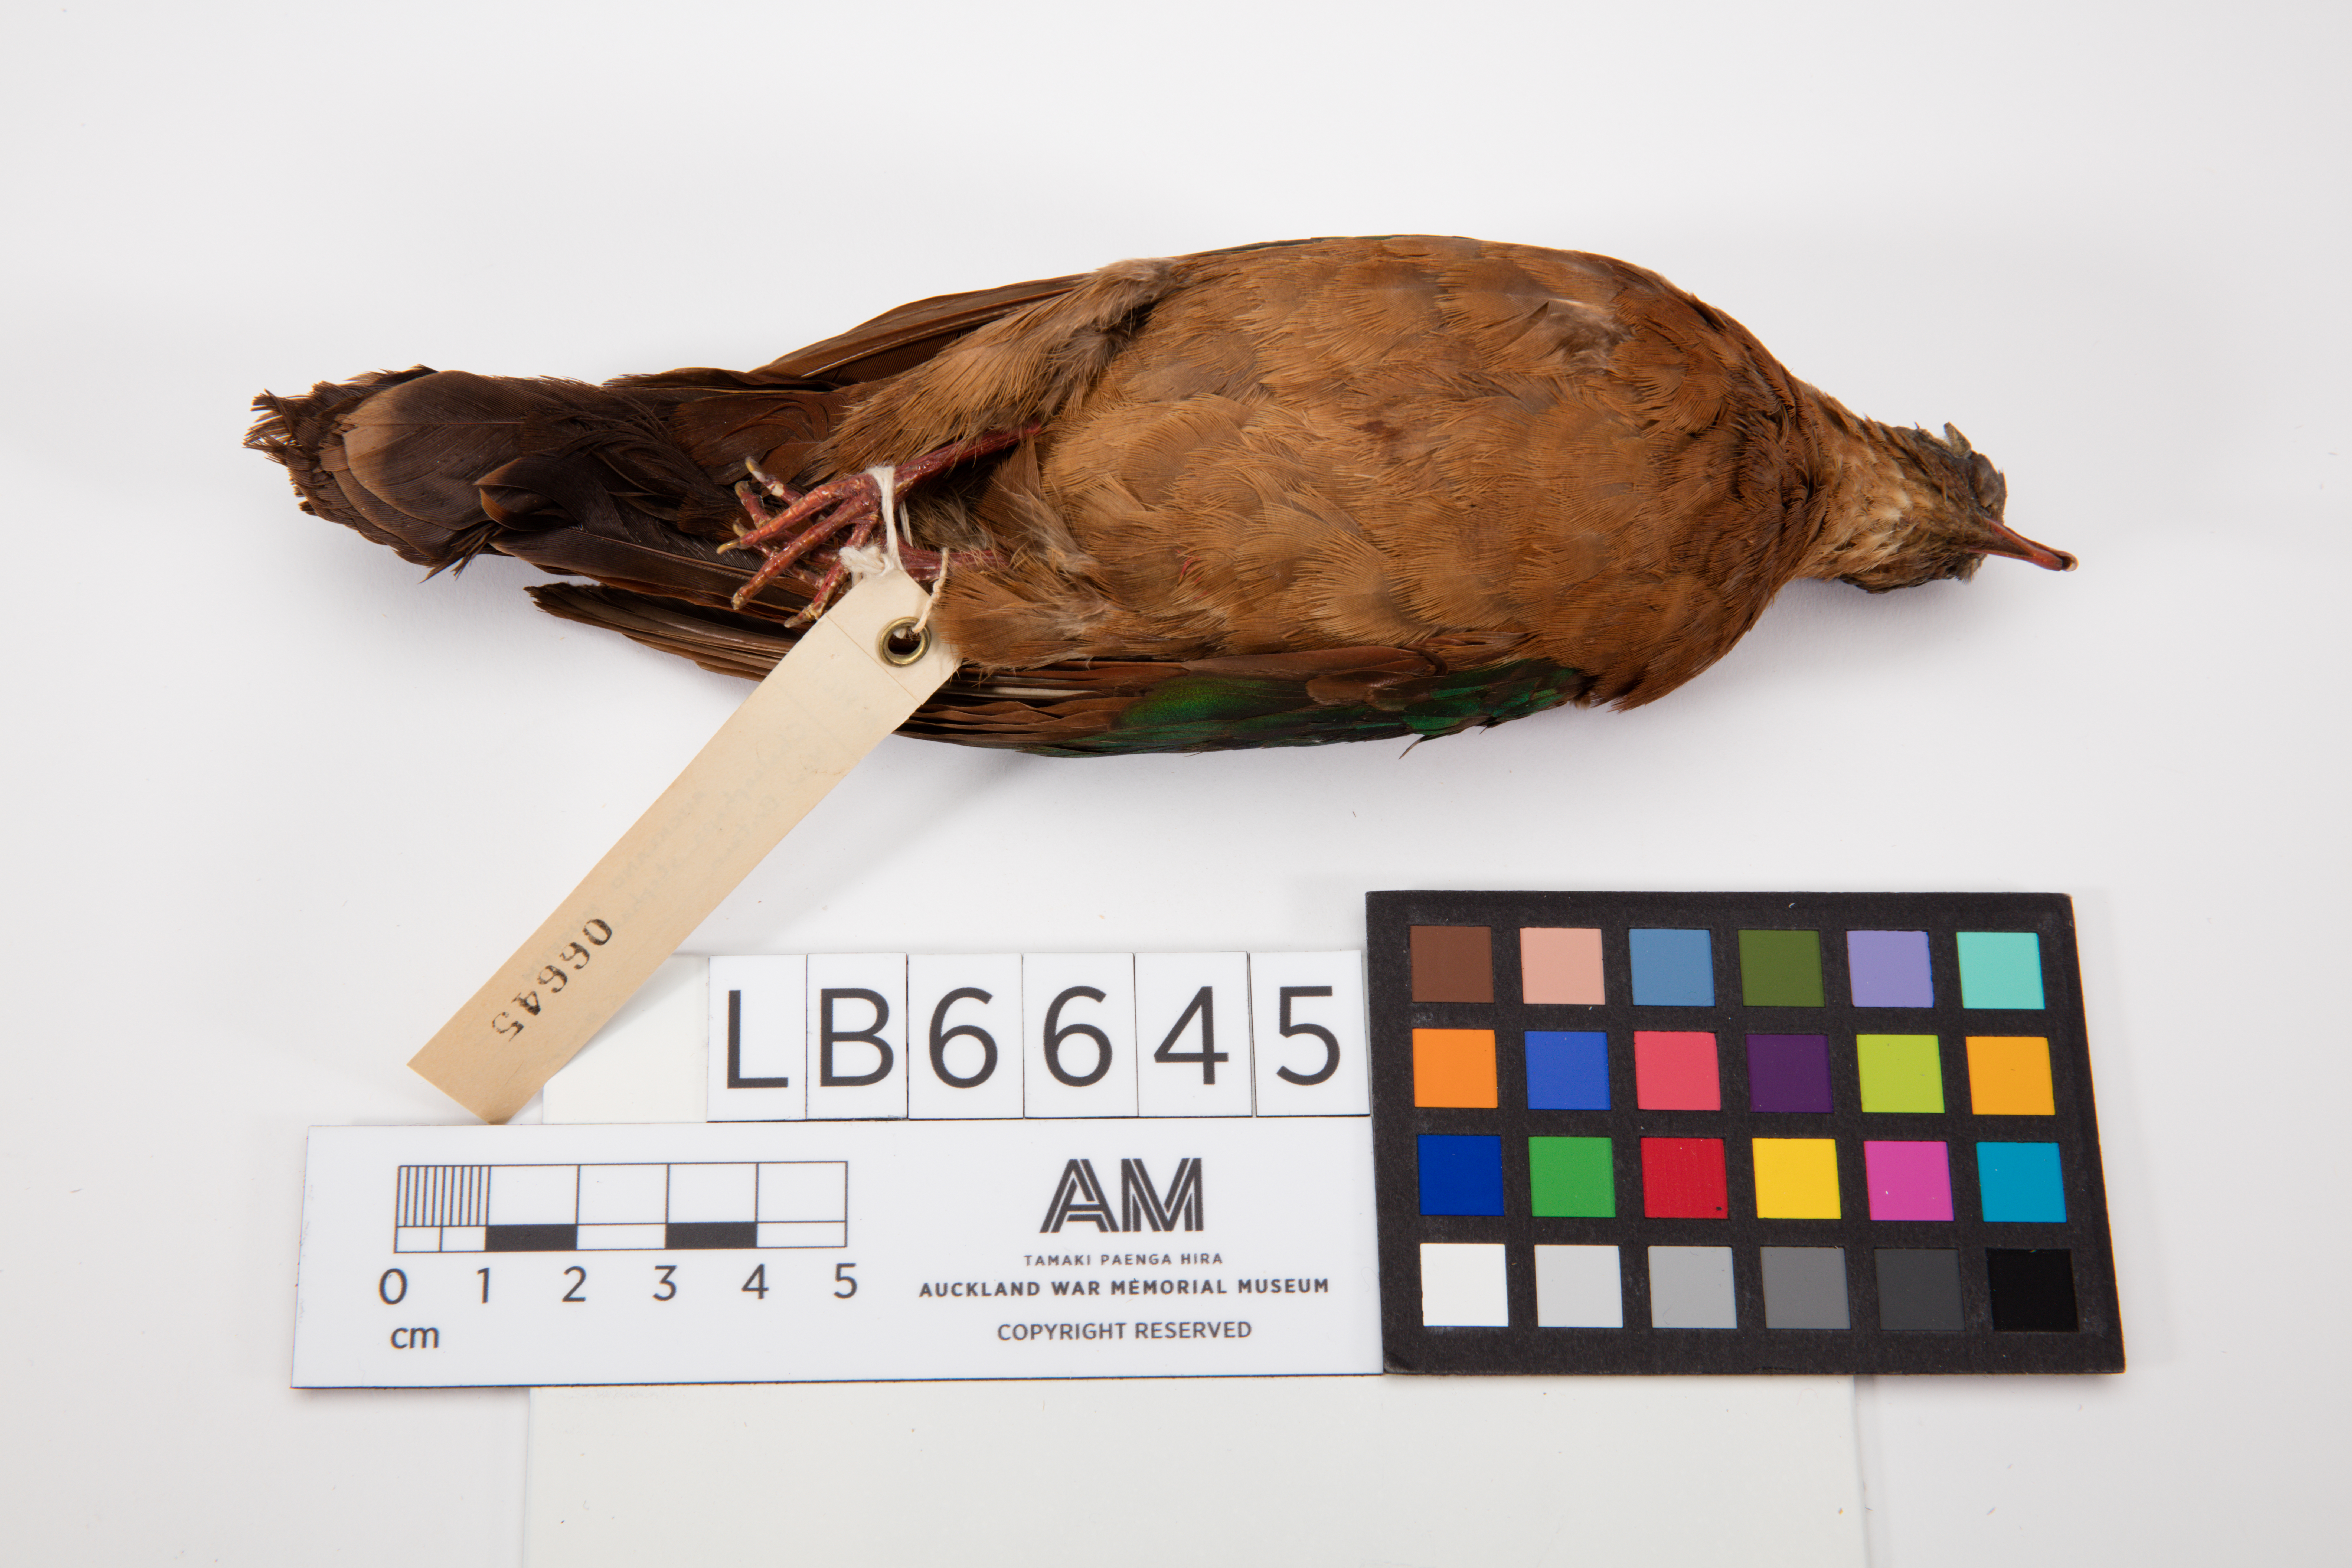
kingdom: Animalia
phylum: Chordata
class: Aves
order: Columbiformes
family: Columbidae
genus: Chalcophaps
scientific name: Chalcophaps stephani
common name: Stephan's emerald dove
